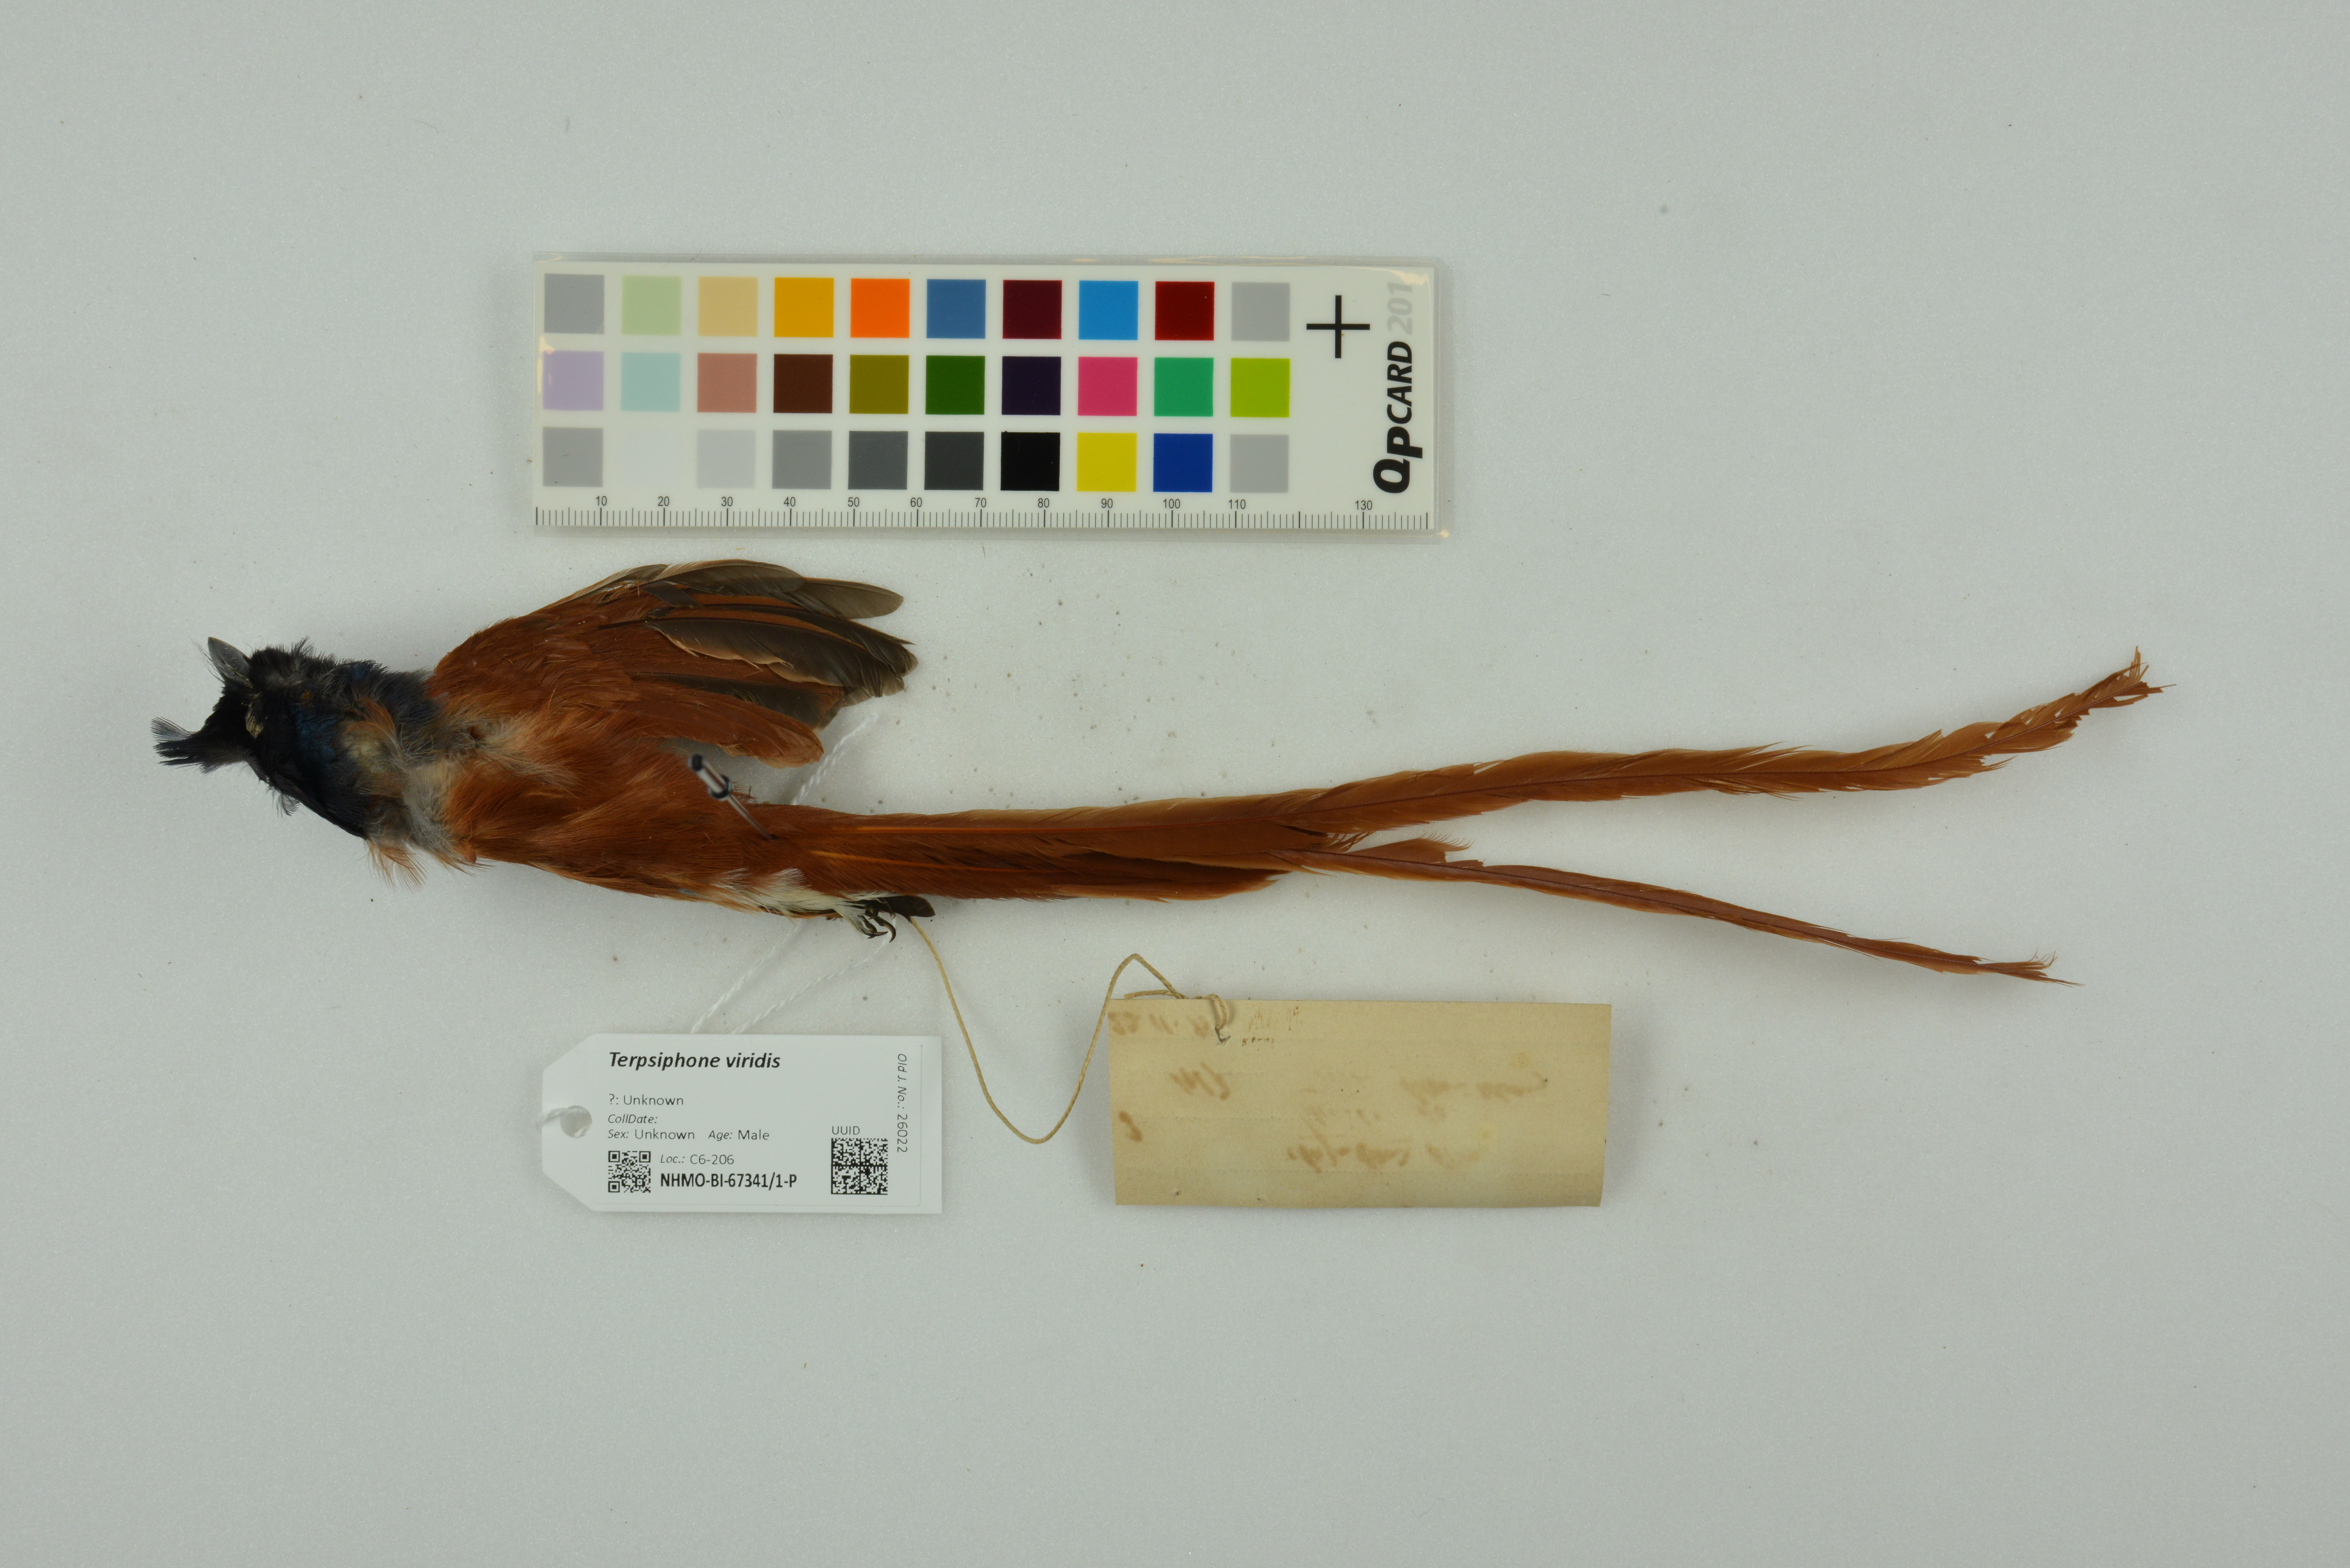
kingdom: Animalia
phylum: Chordata
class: Aves
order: Passeriformes
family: Monarchidae
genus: Terpsiphone
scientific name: Terpsiphone viridis
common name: African paradise flycatcher
